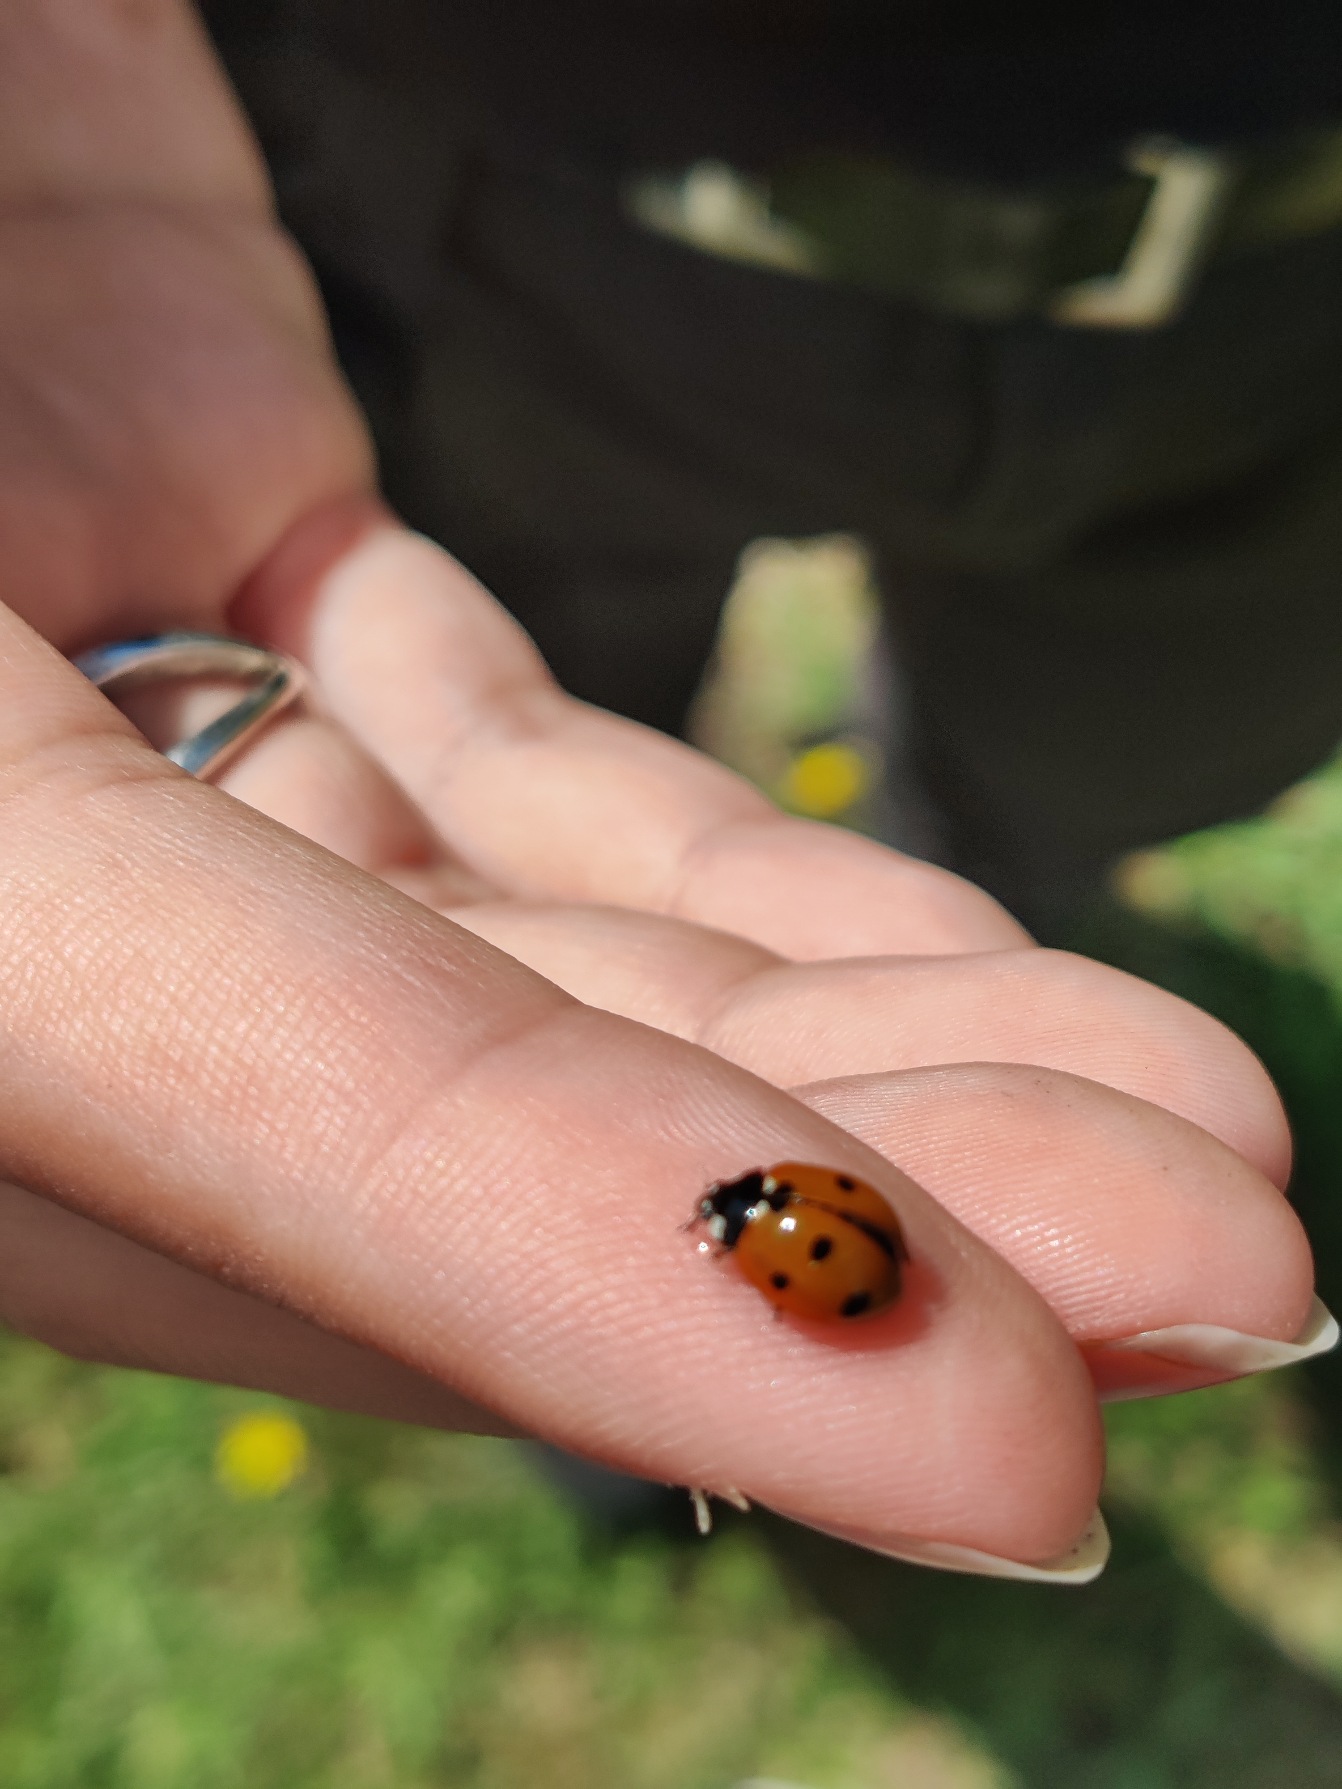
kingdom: Animalia
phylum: Arthropoda
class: Insecta
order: Coleoptera
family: Coccinellidae
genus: Coccinella
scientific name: Coccinella septempunctata
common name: Syvplettet mariehøne
